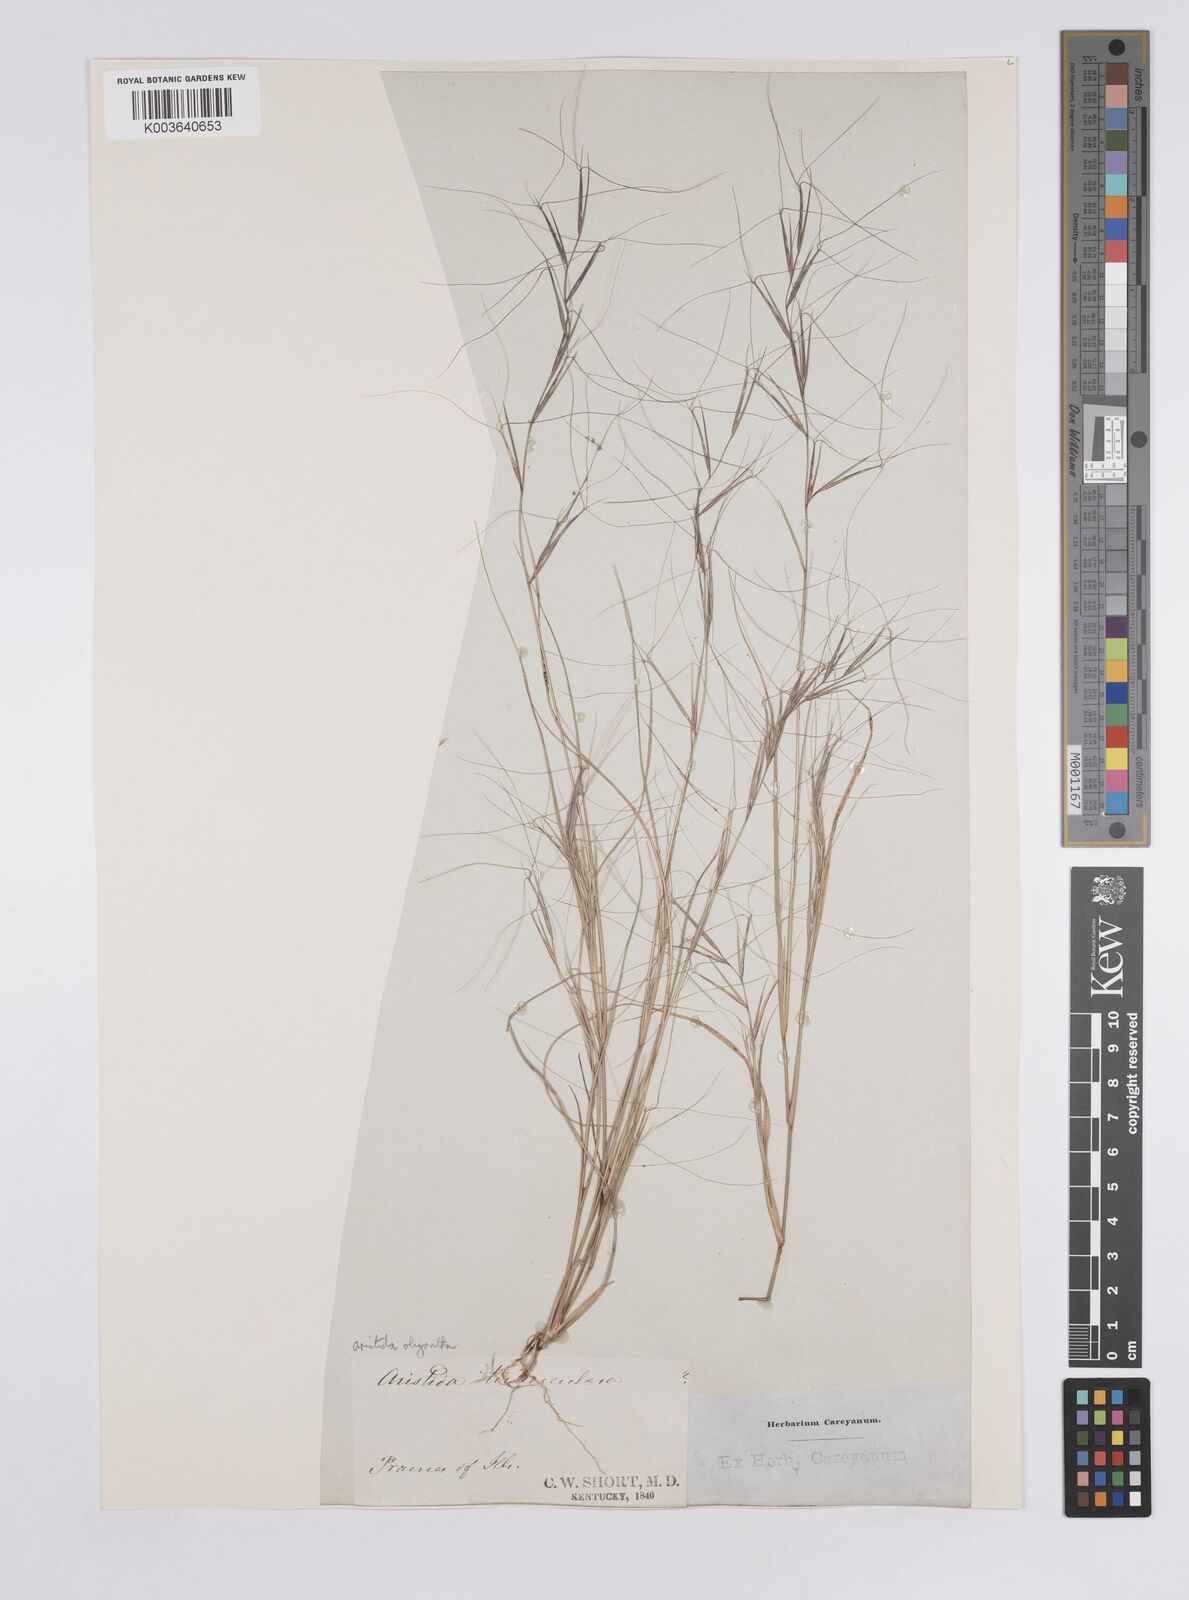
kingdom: Plantae
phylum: Tracheophyta
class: Liliopsida
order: Poales
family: Poaceae
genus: Aristida
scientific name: Aristida oligantha
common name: Few-flowered aristida
